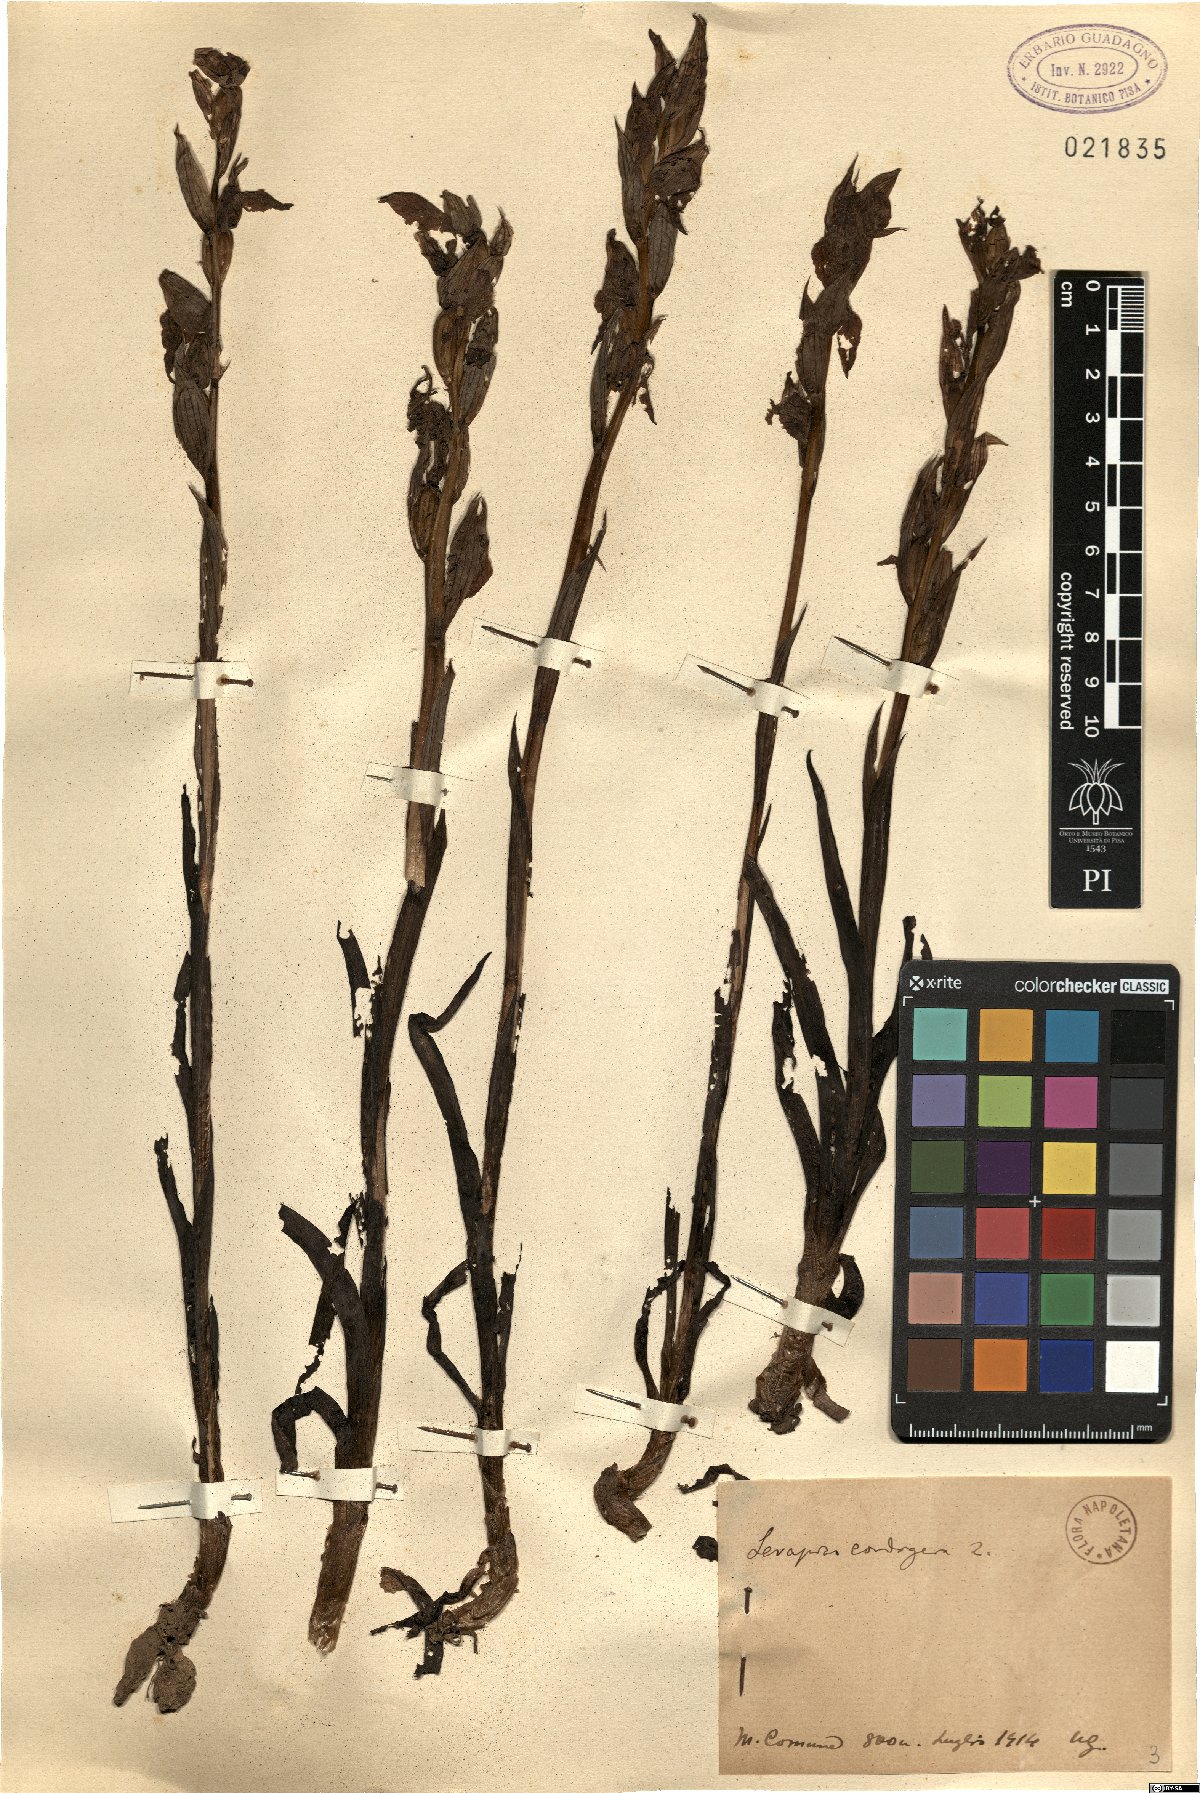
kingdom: Plantae
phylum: Tracheophyta
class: Liliopsida
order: Asparagales
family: Orchidaceae
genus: Serapias
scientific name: Serapias cordigera
